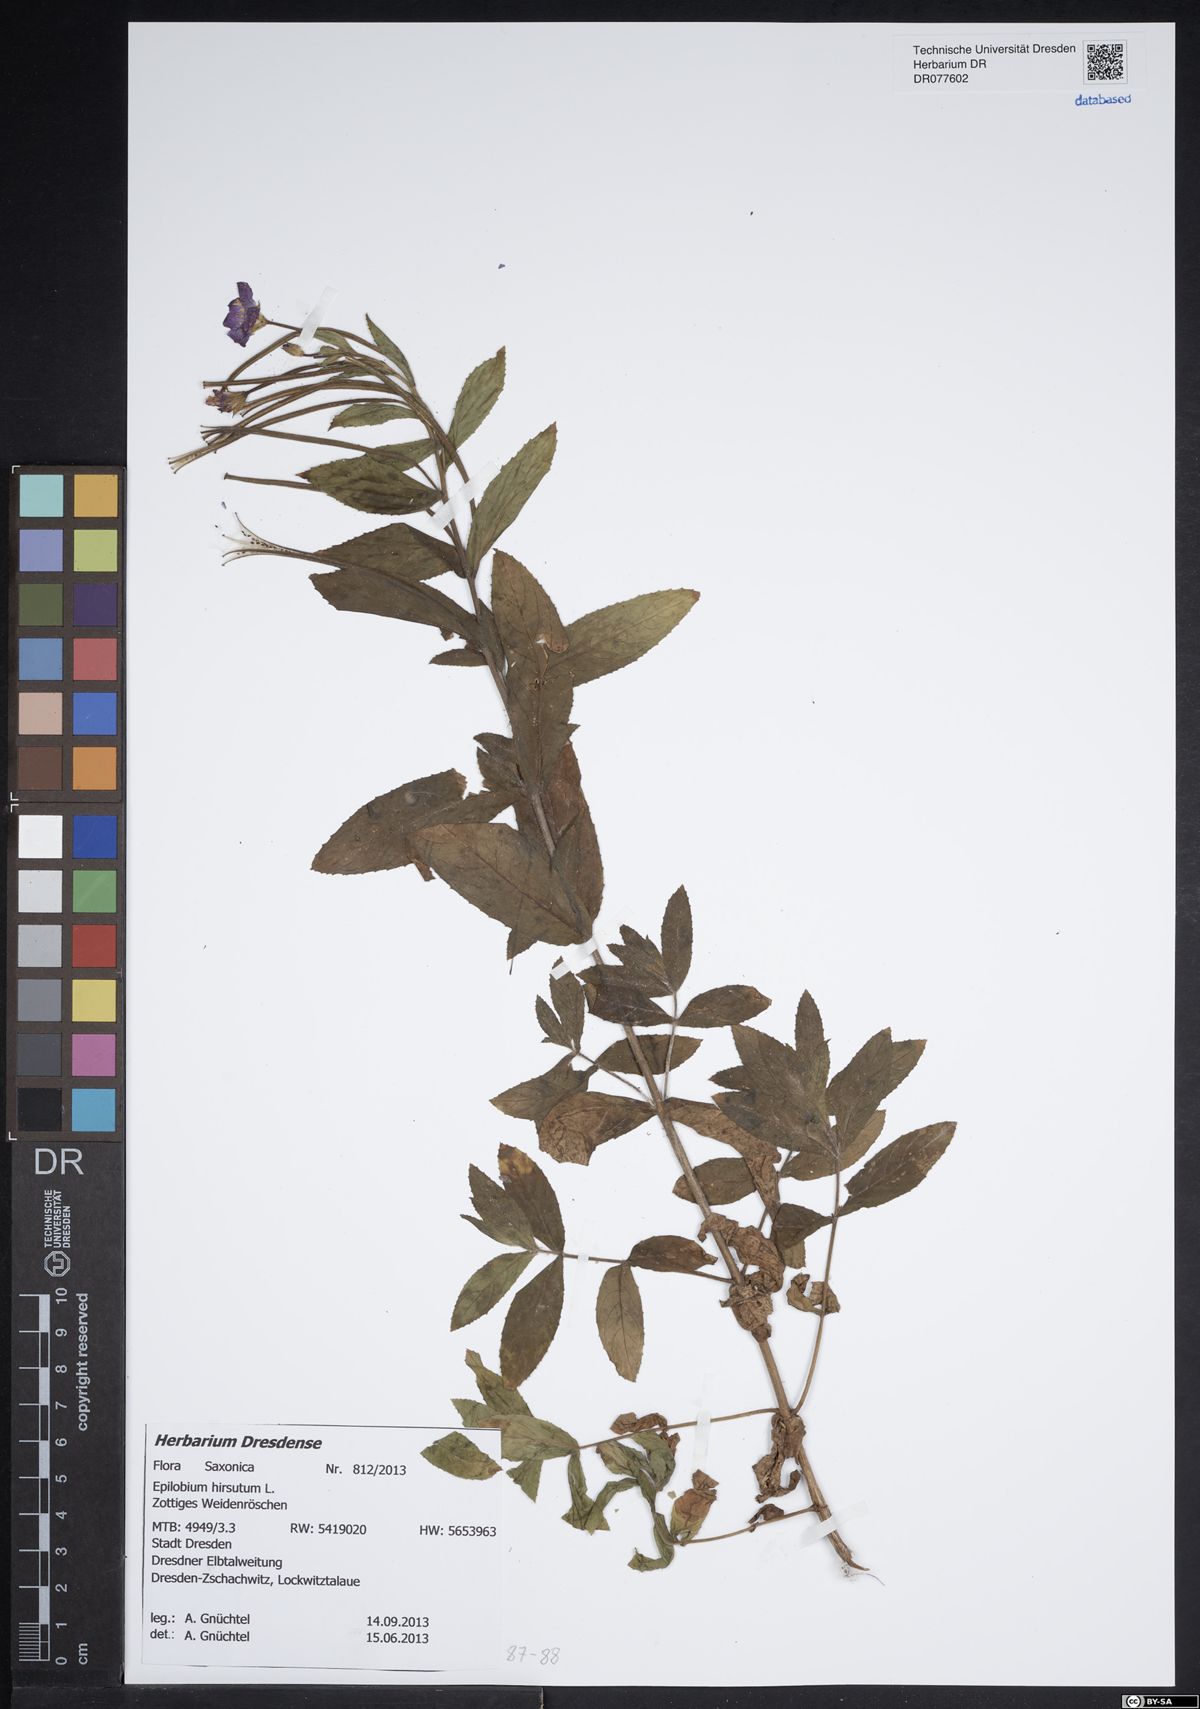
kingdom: Plantae
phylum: Tracheophyta
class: Magnoliopsida
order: Myrtales
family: Onagraceae
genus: Epilobium
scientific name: Epilobium hirsutum
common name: Great willowherb
